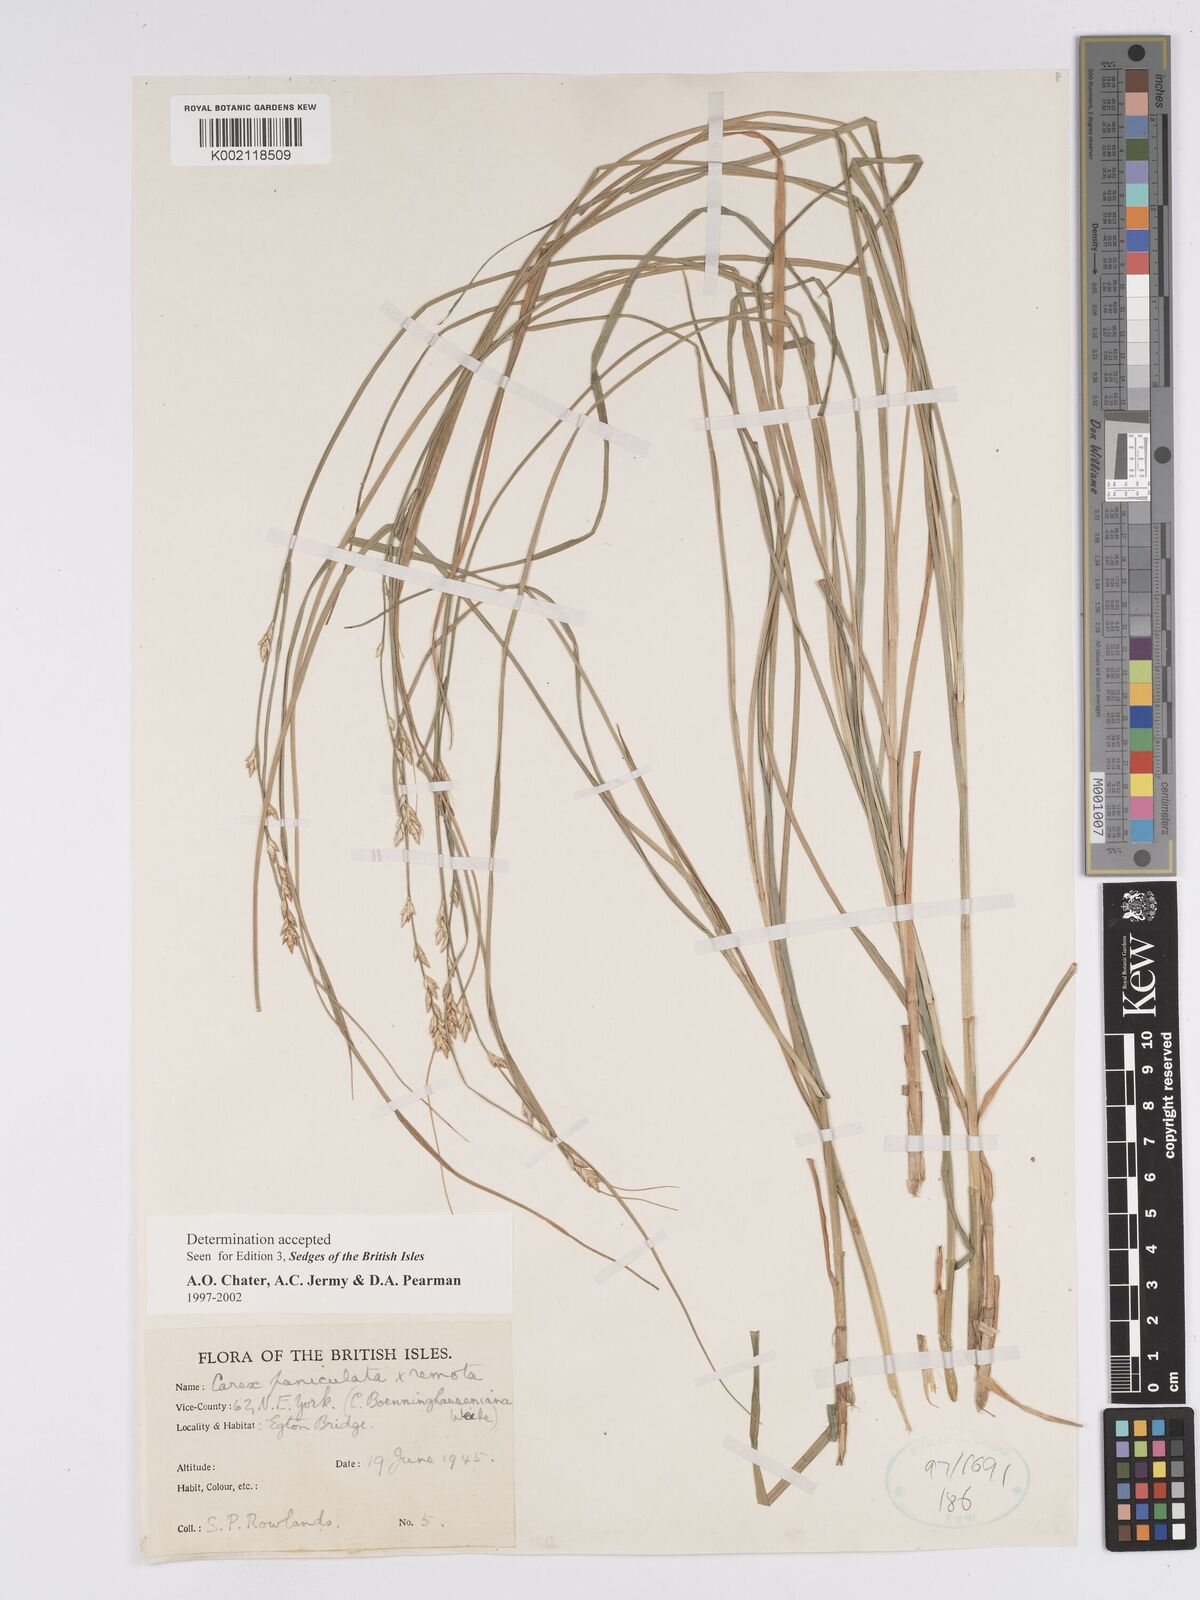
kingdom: Plantae
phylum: Tracheophyta
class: Liliopsida
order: Poales
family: Cyperaceae
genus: Carex
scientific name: Carex boenninghausiana
